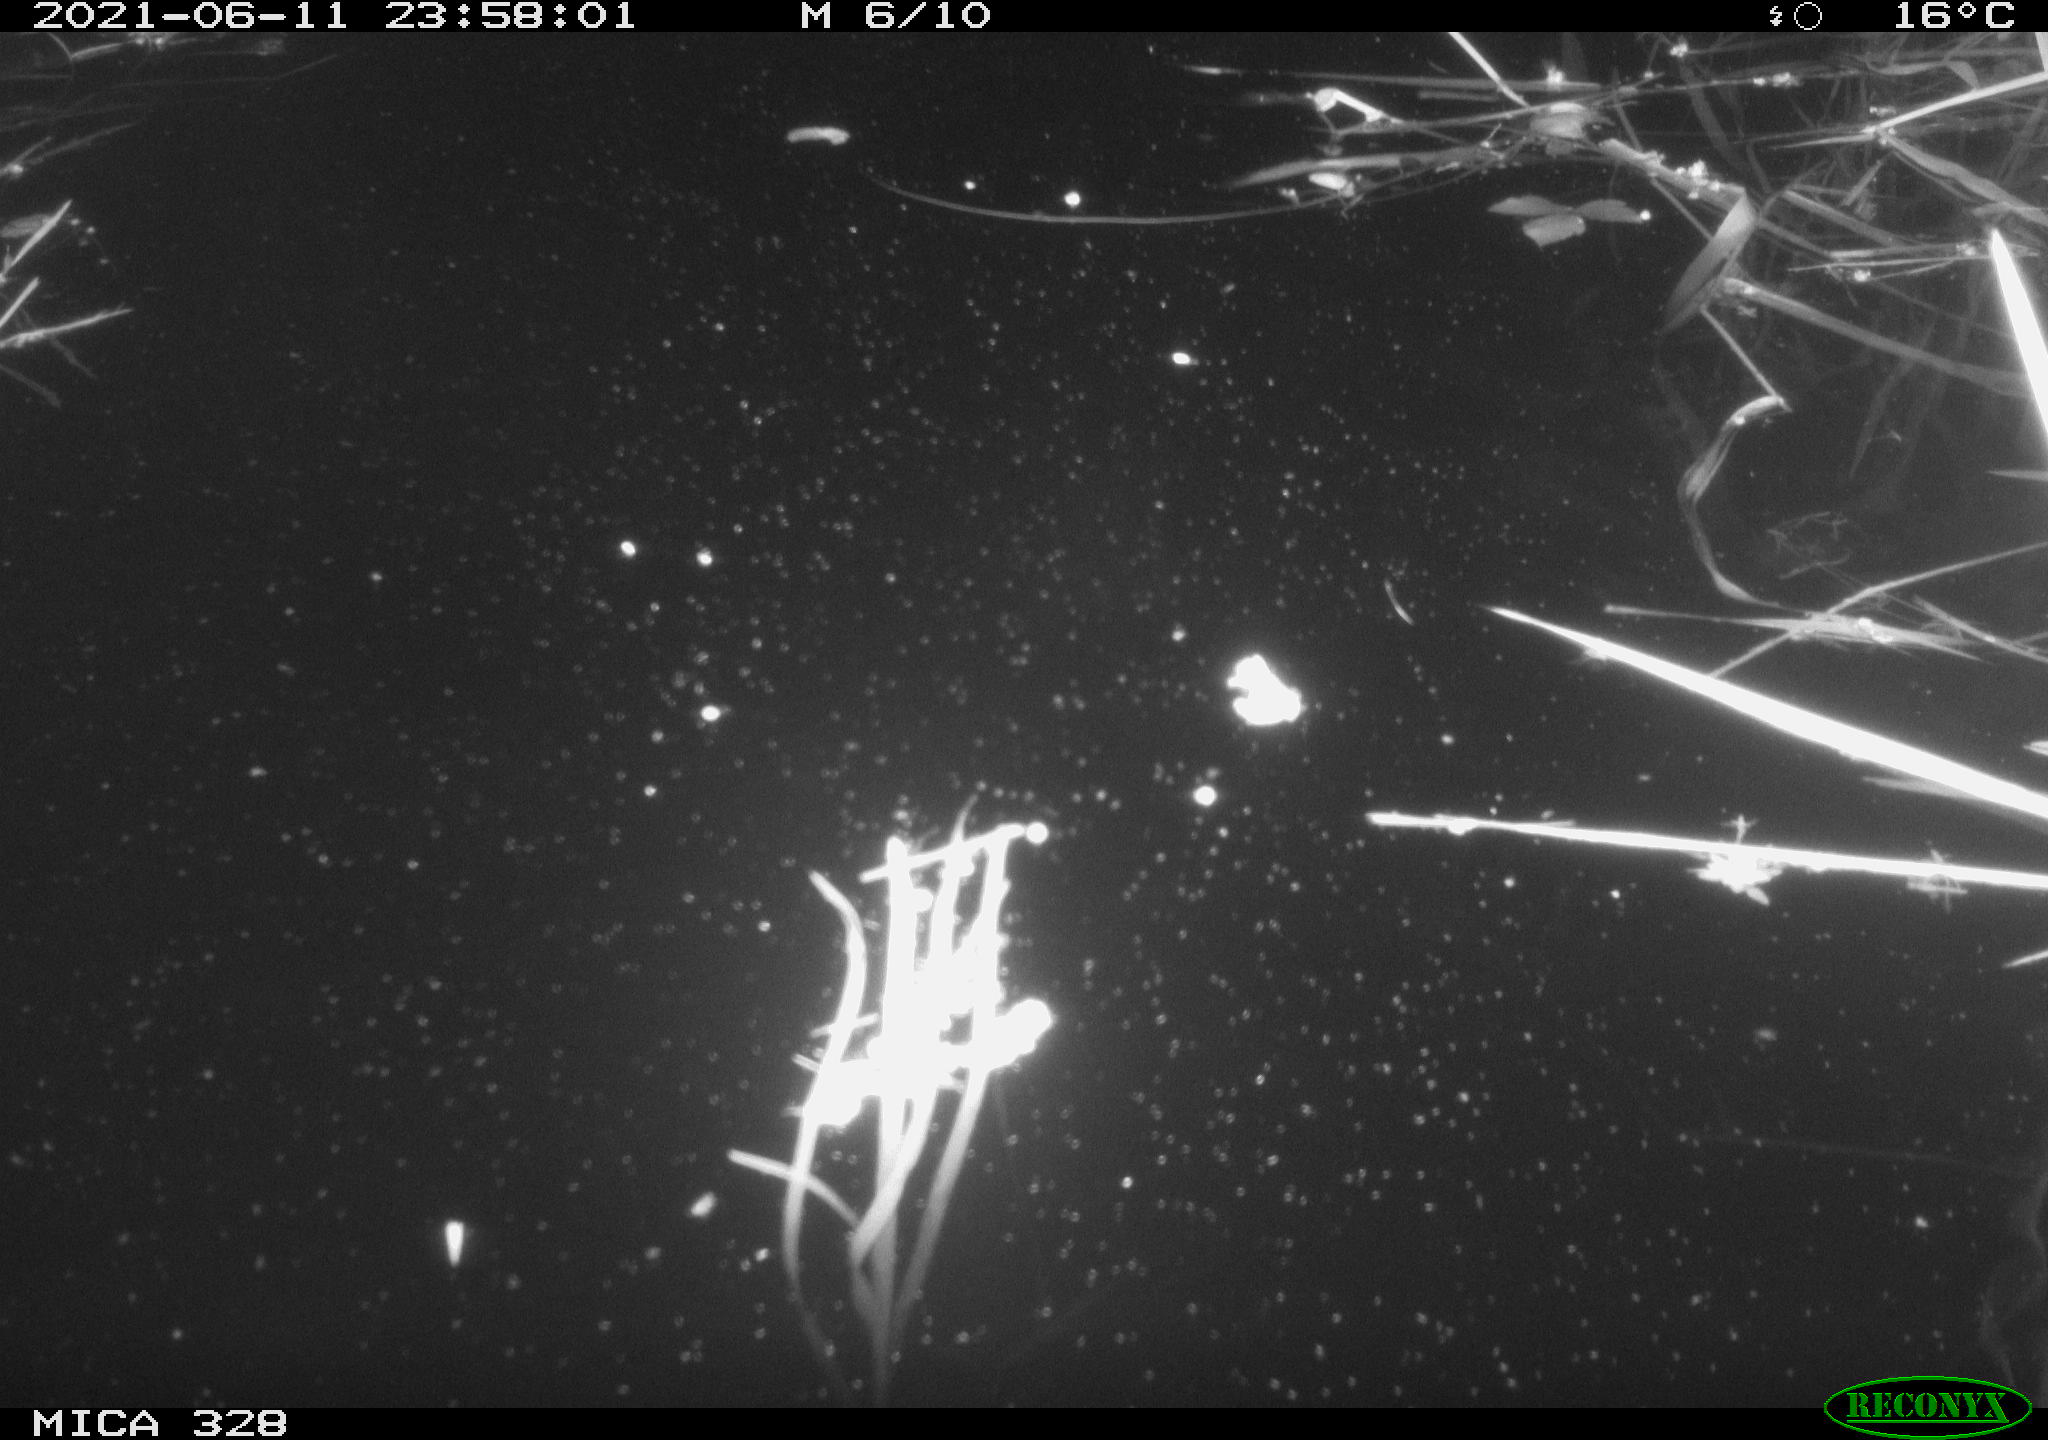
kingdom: Animalia
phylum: Chordata
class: Mammalia
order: Rodentia
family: Cricetidae
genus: Ondatra
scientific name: Ondatra zibethicus
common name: Muskrat
